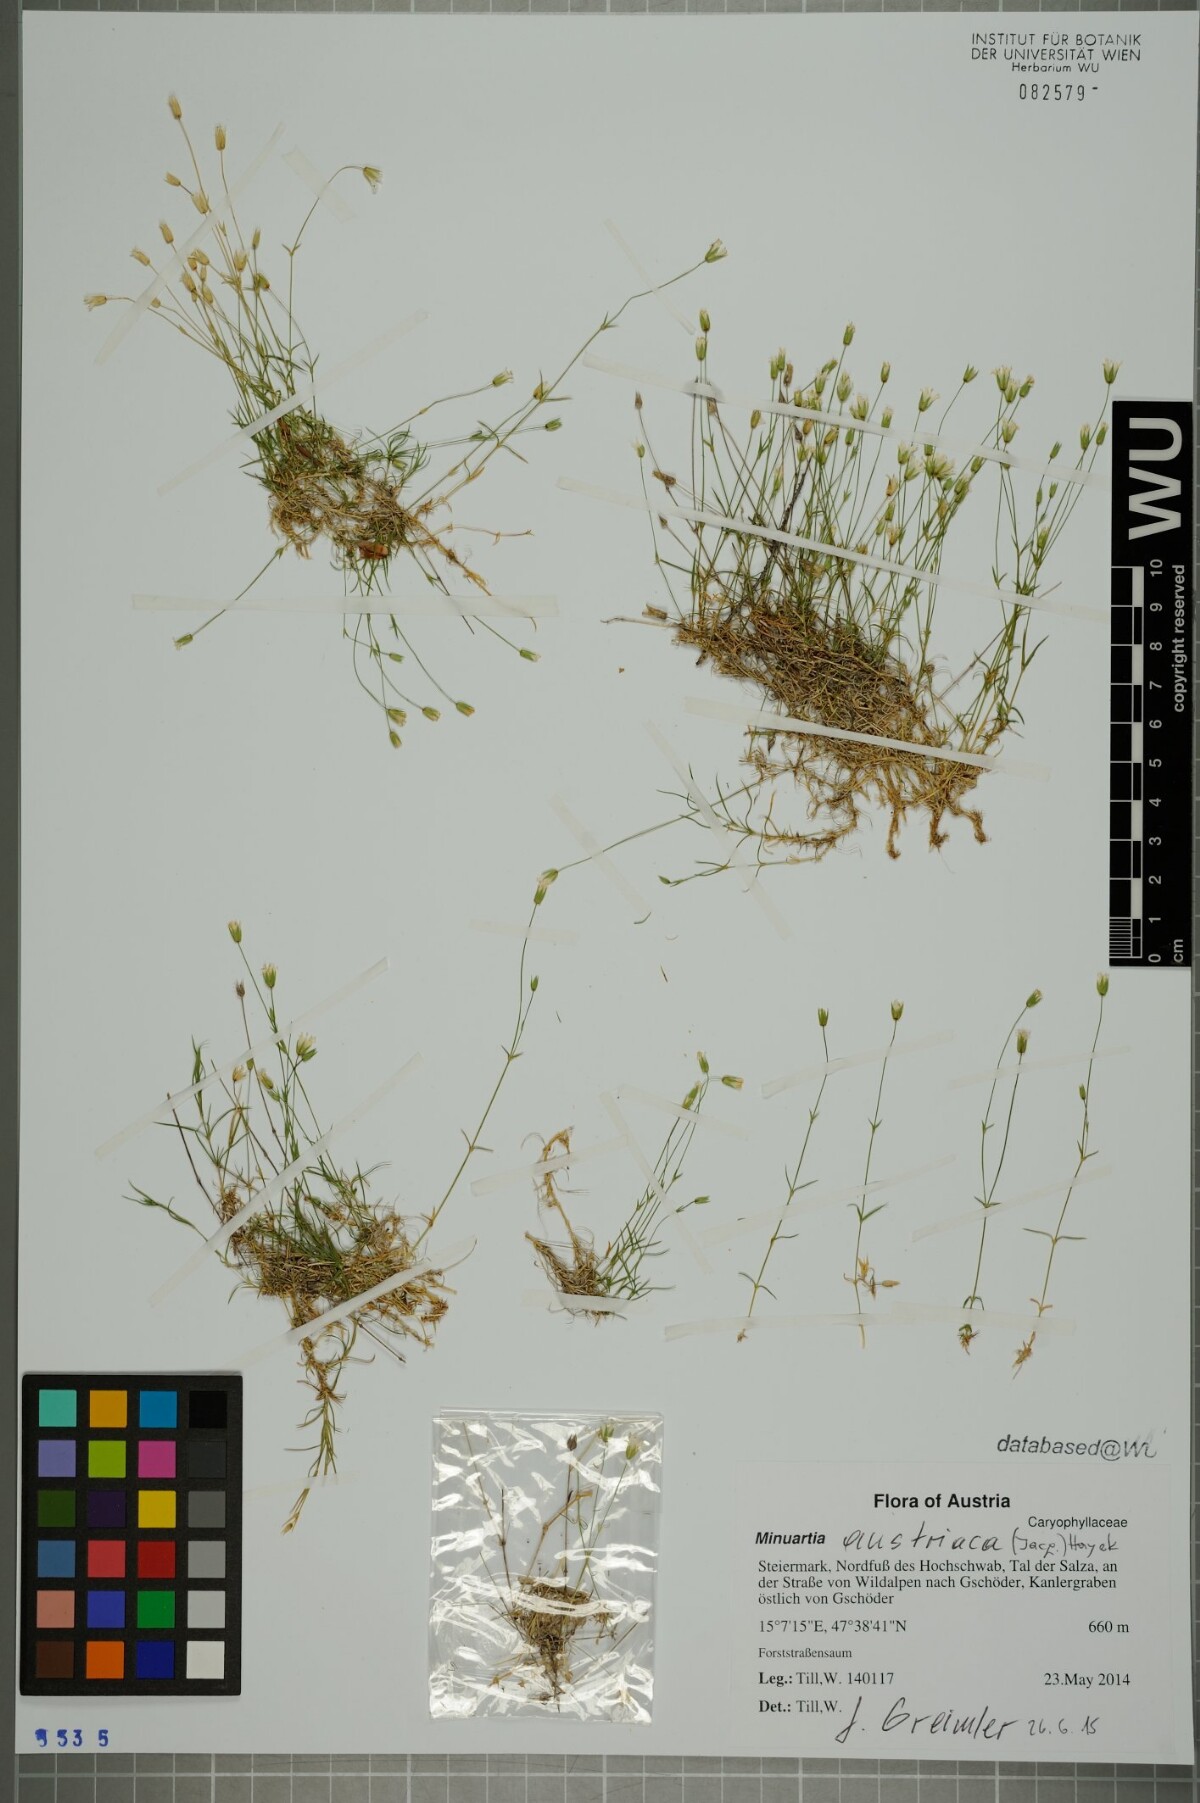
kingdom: Plantae
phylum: Tracheophyta
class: Magnoliopsida
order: Caryophyllales
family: Caryophyllaceae
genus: Sabulina
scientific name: Sabulina austriaca
